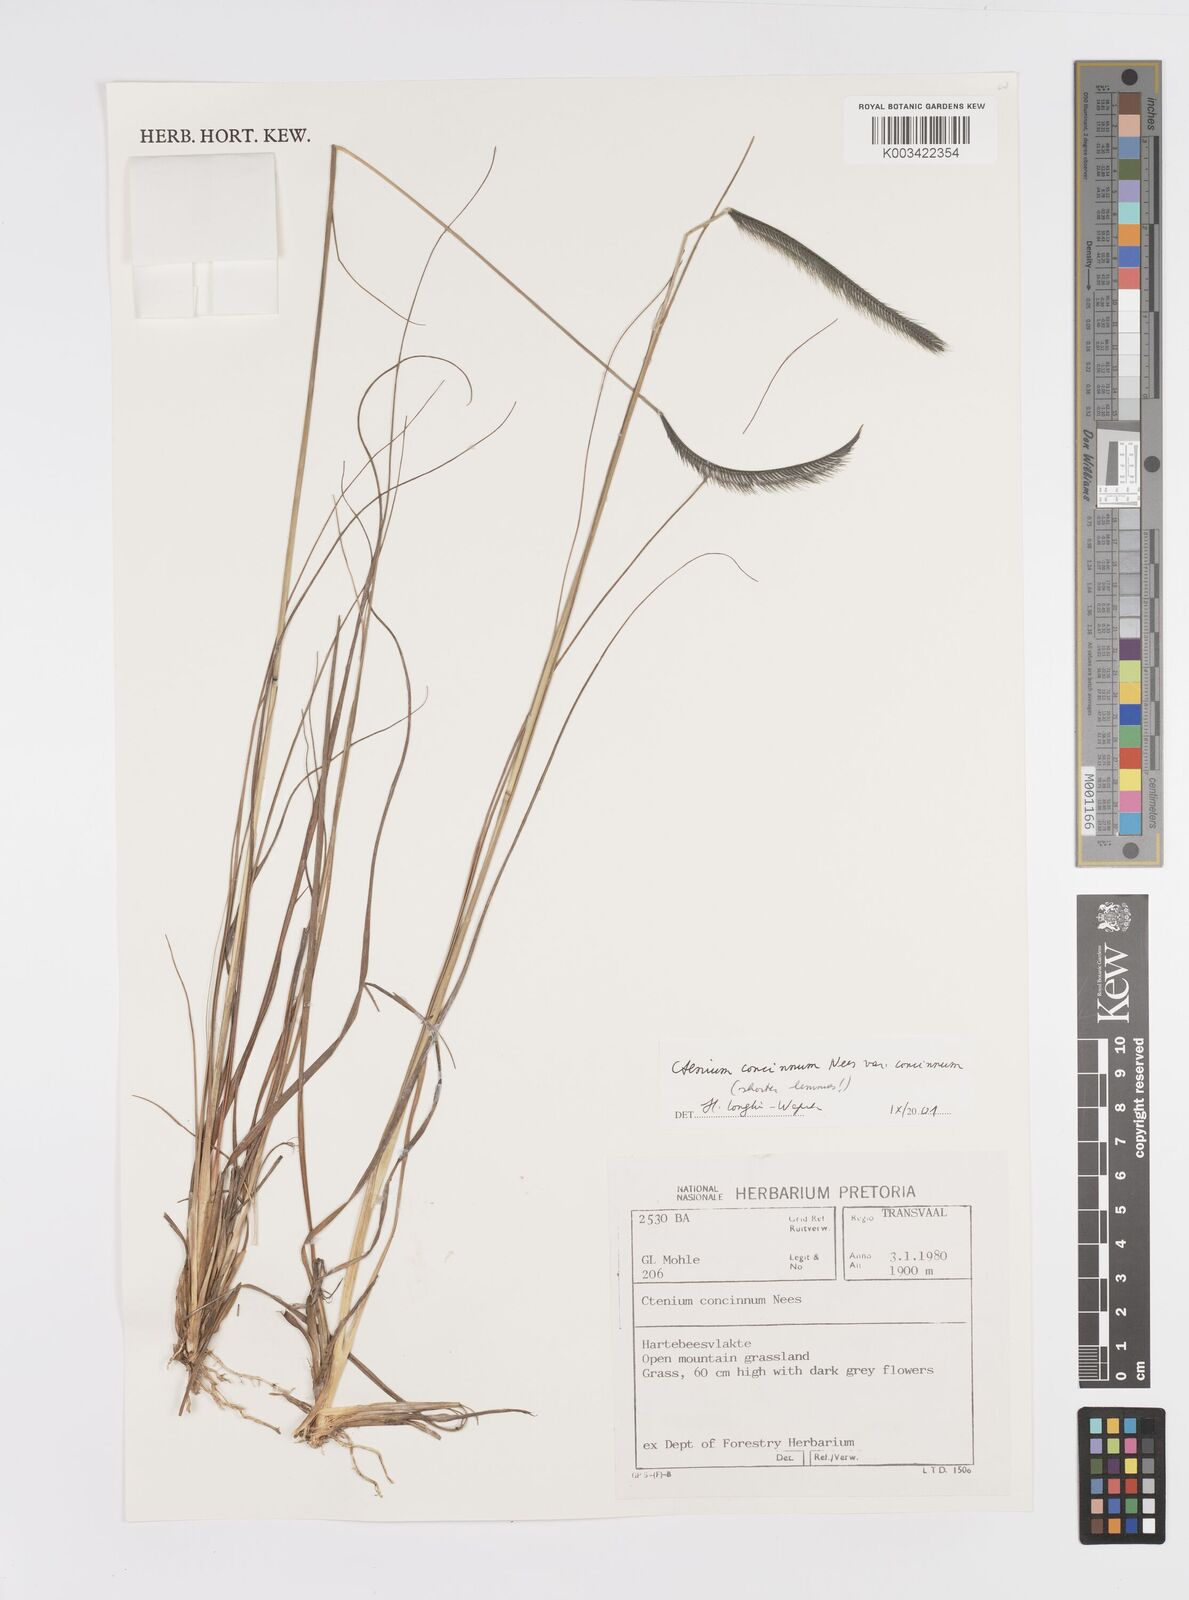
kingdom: Plantae
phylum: Tracheophyta
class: Liliopsida
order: Poales
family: Poaceae
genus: Ctenium
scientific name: Ctenium concinnum
